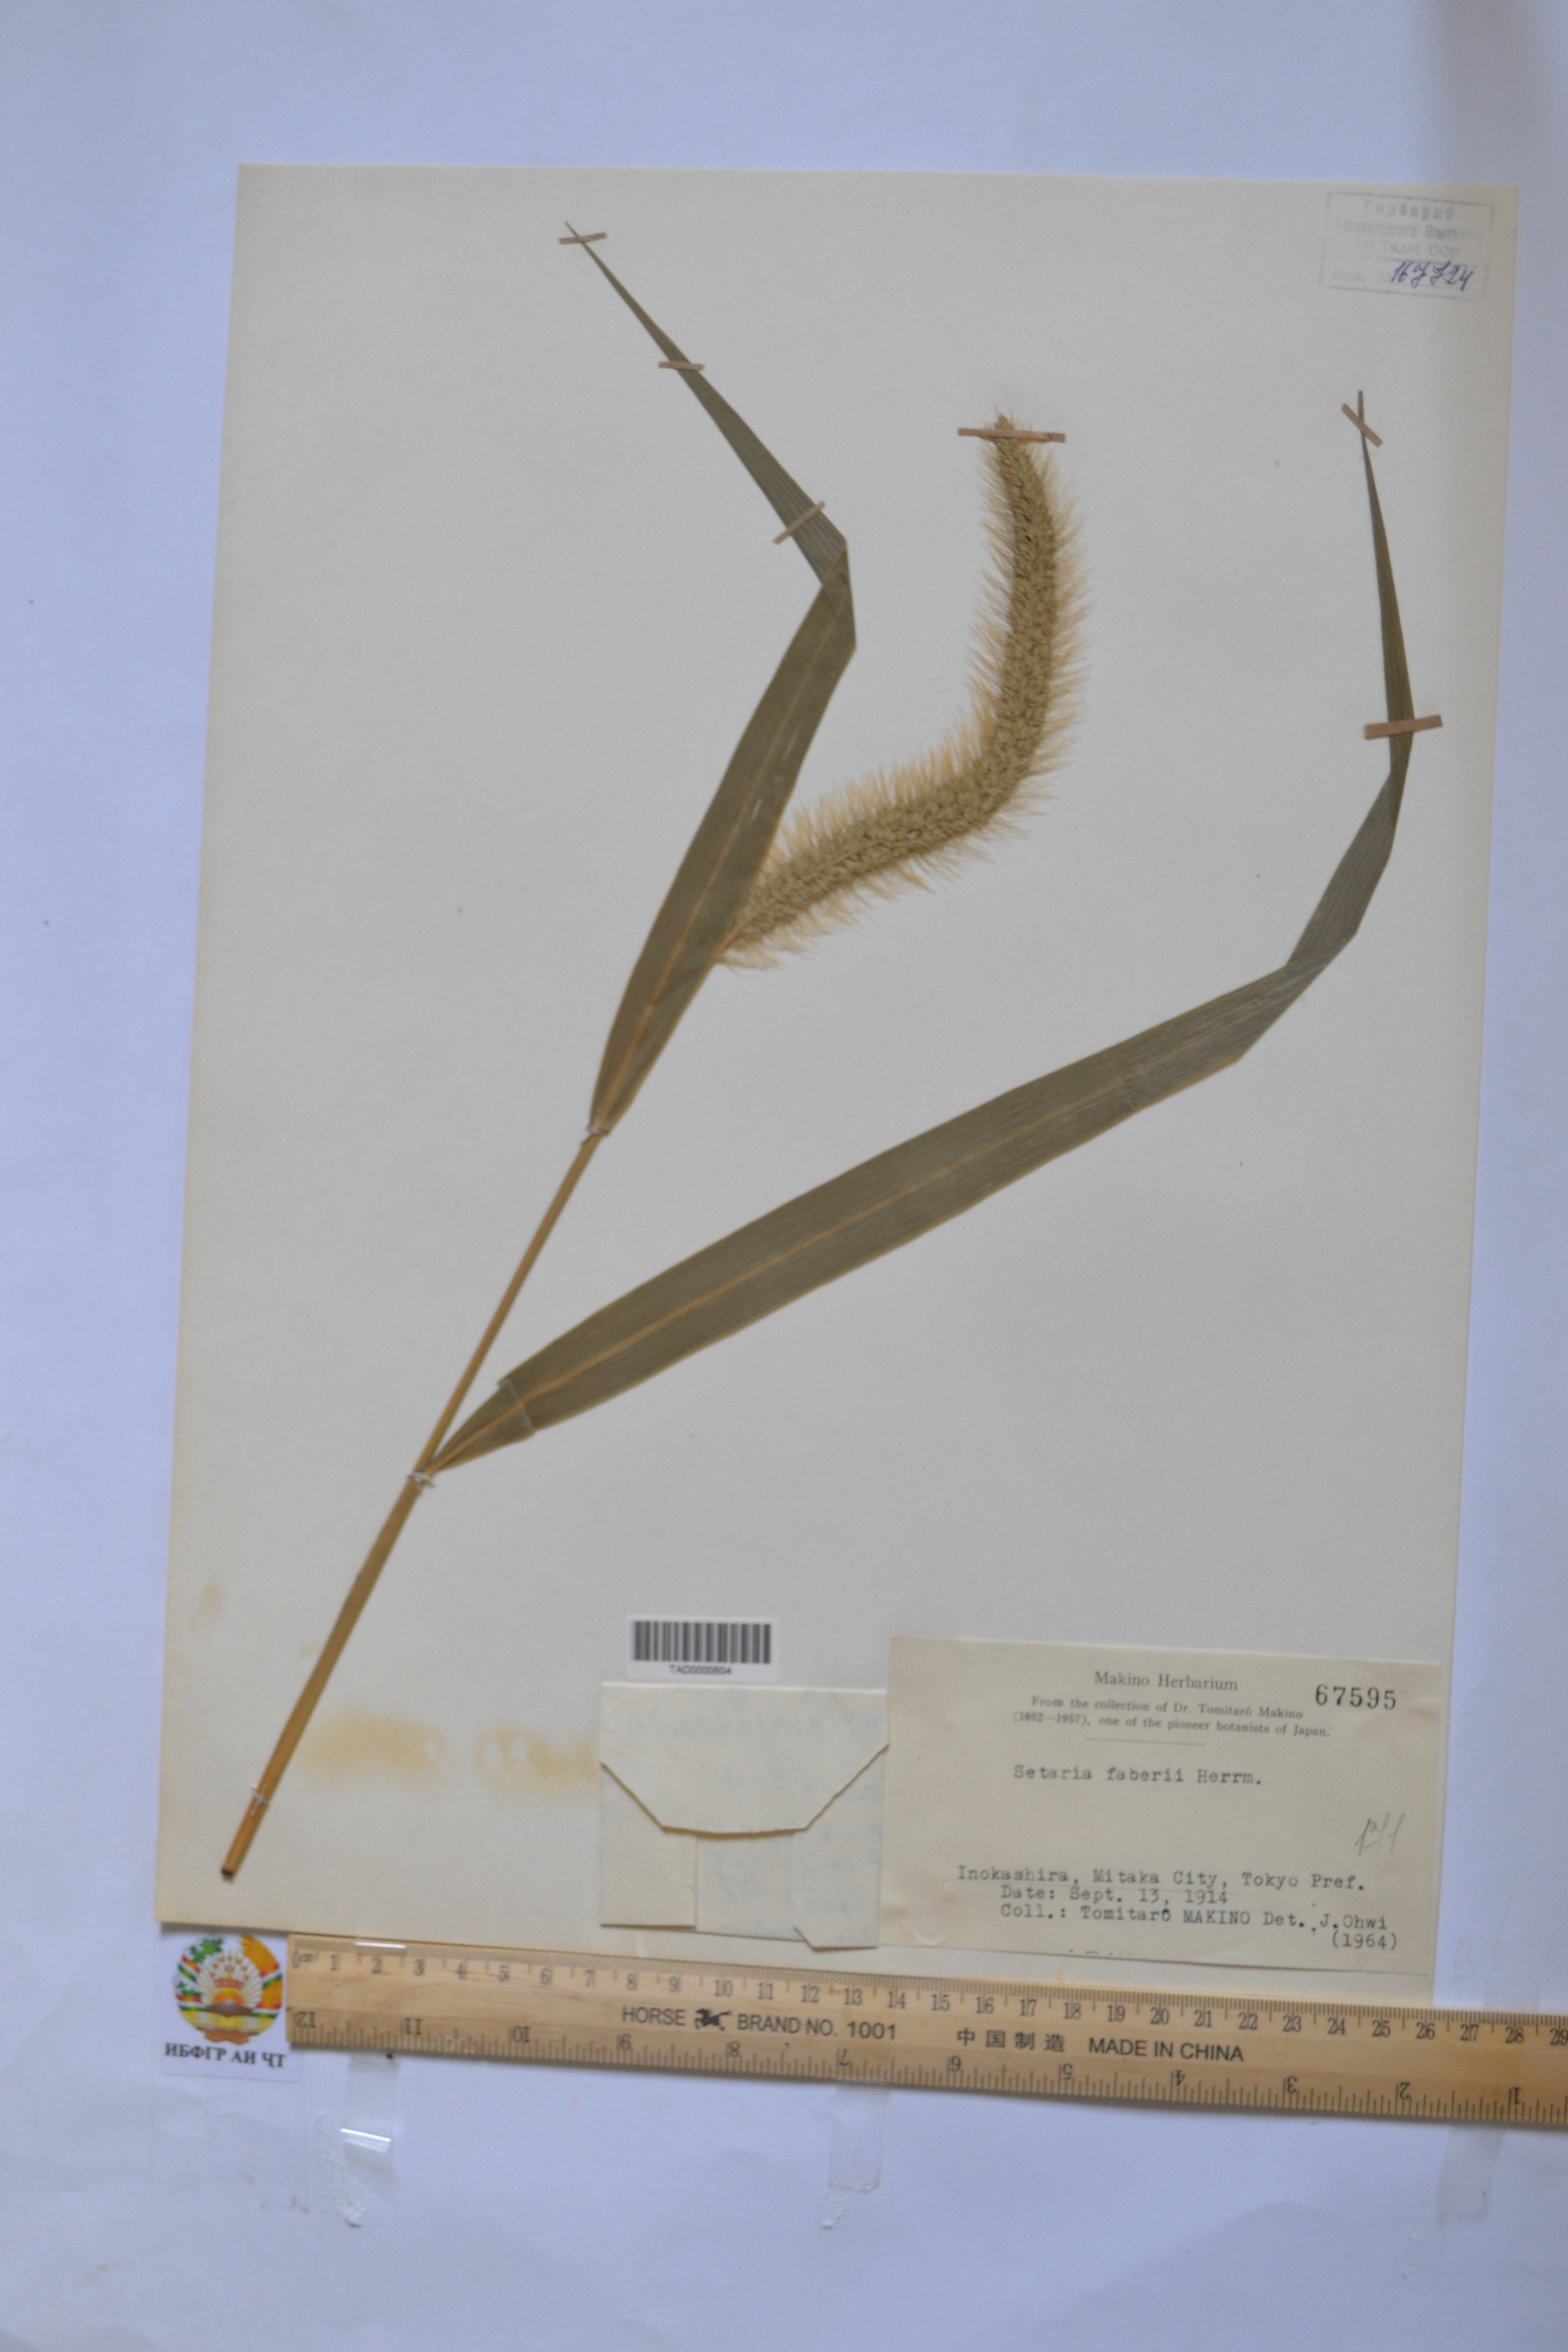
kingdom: Plantae
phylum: Tracheophyta
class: Liliopsida
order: Poales
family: Poaceae
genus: Setaria
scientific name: Setaria faberi
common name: Nodding bristle-grass
